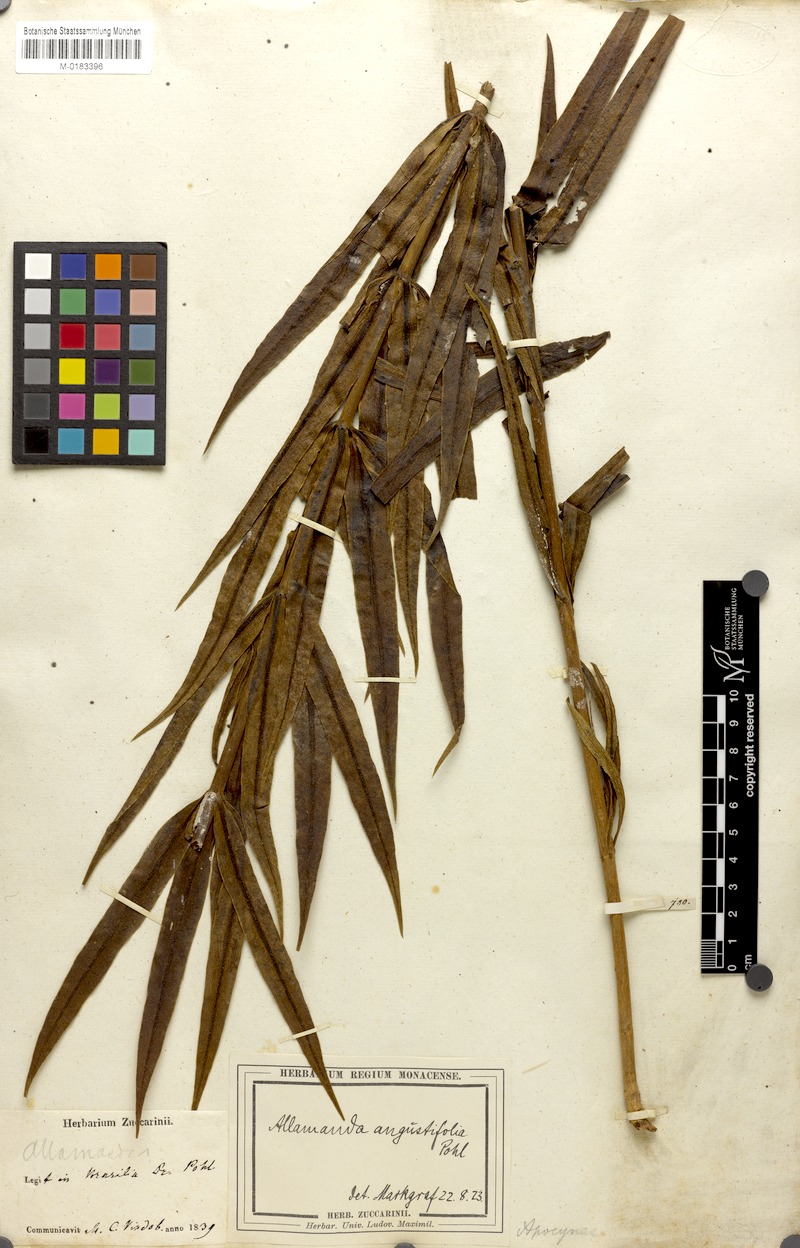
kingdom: Plantae
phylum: Tracheophyta
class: Magnoliopsida
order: Gentianales
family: Apocynaceae
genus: Allamanda
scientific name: Allamanda angustifolia
